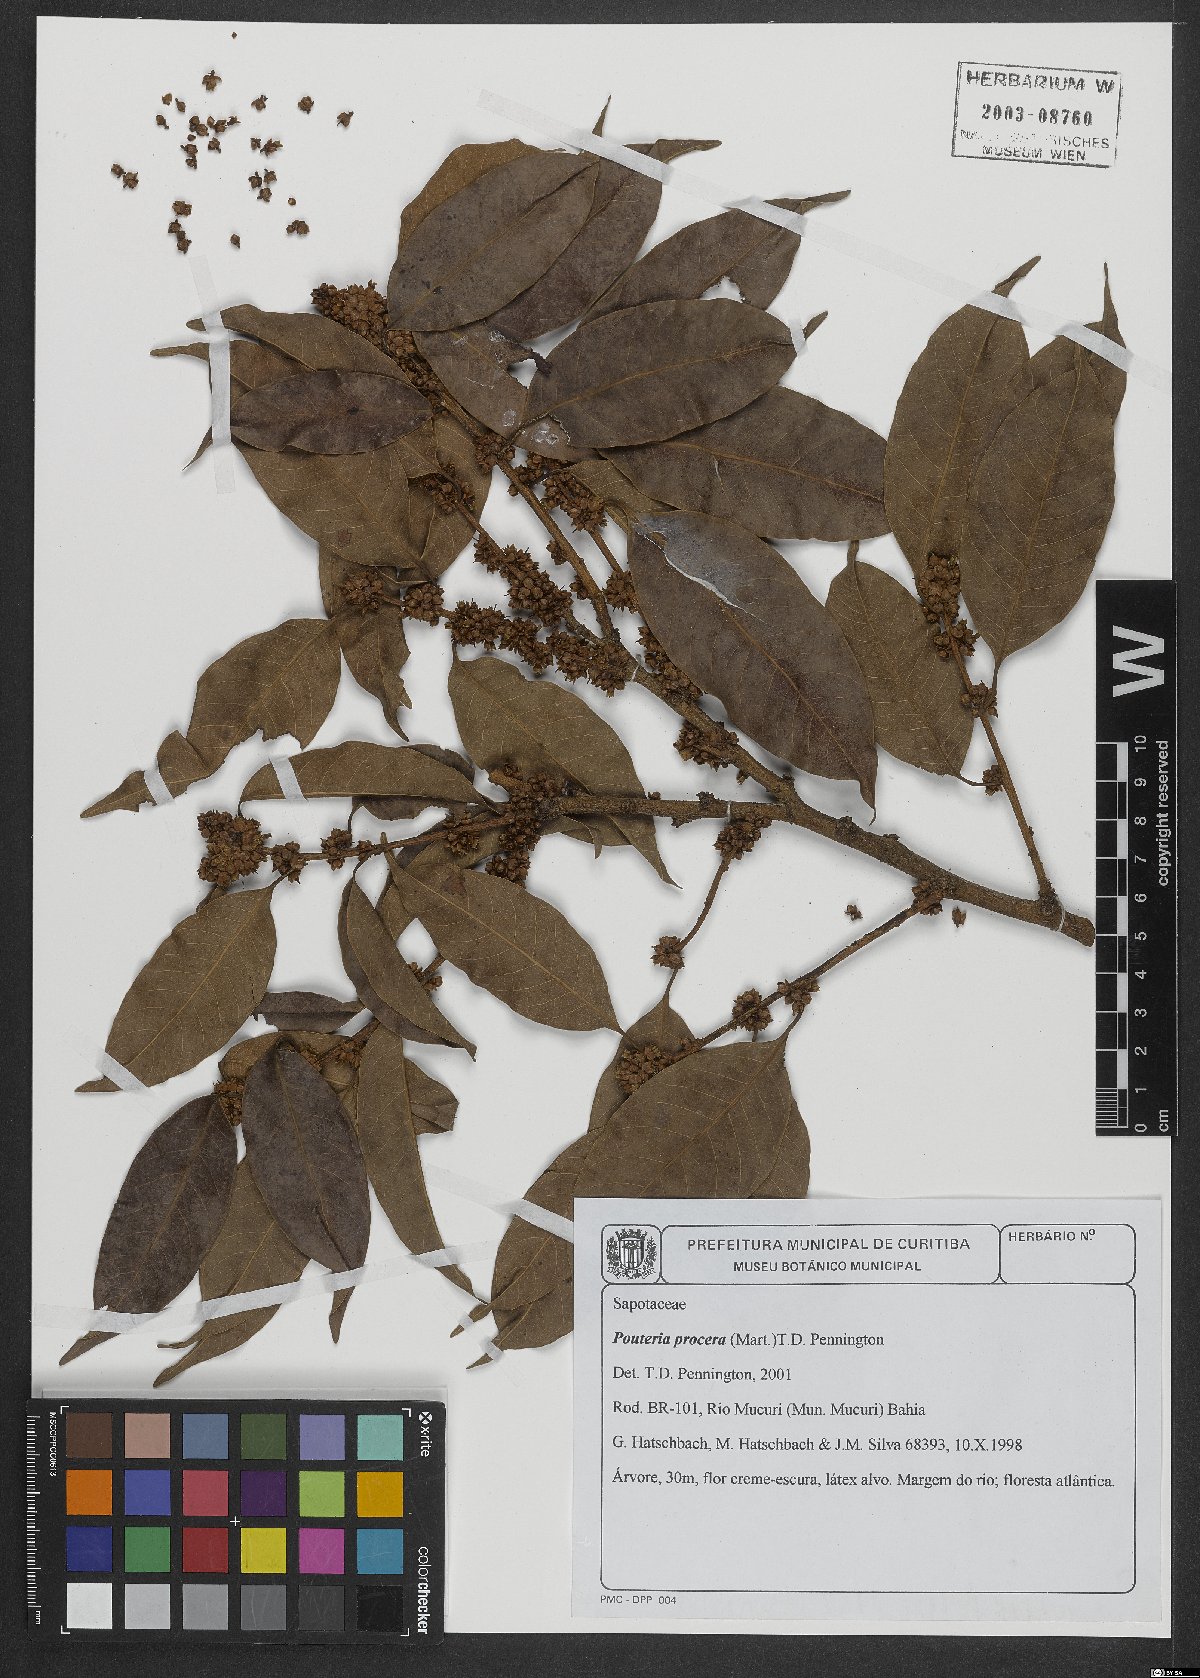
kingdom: Plantae
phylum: Tracheophyta
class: Magnoliopsida
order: Ericales
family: Sapotaceae
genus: Pouteria
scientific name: Pouteria procera
